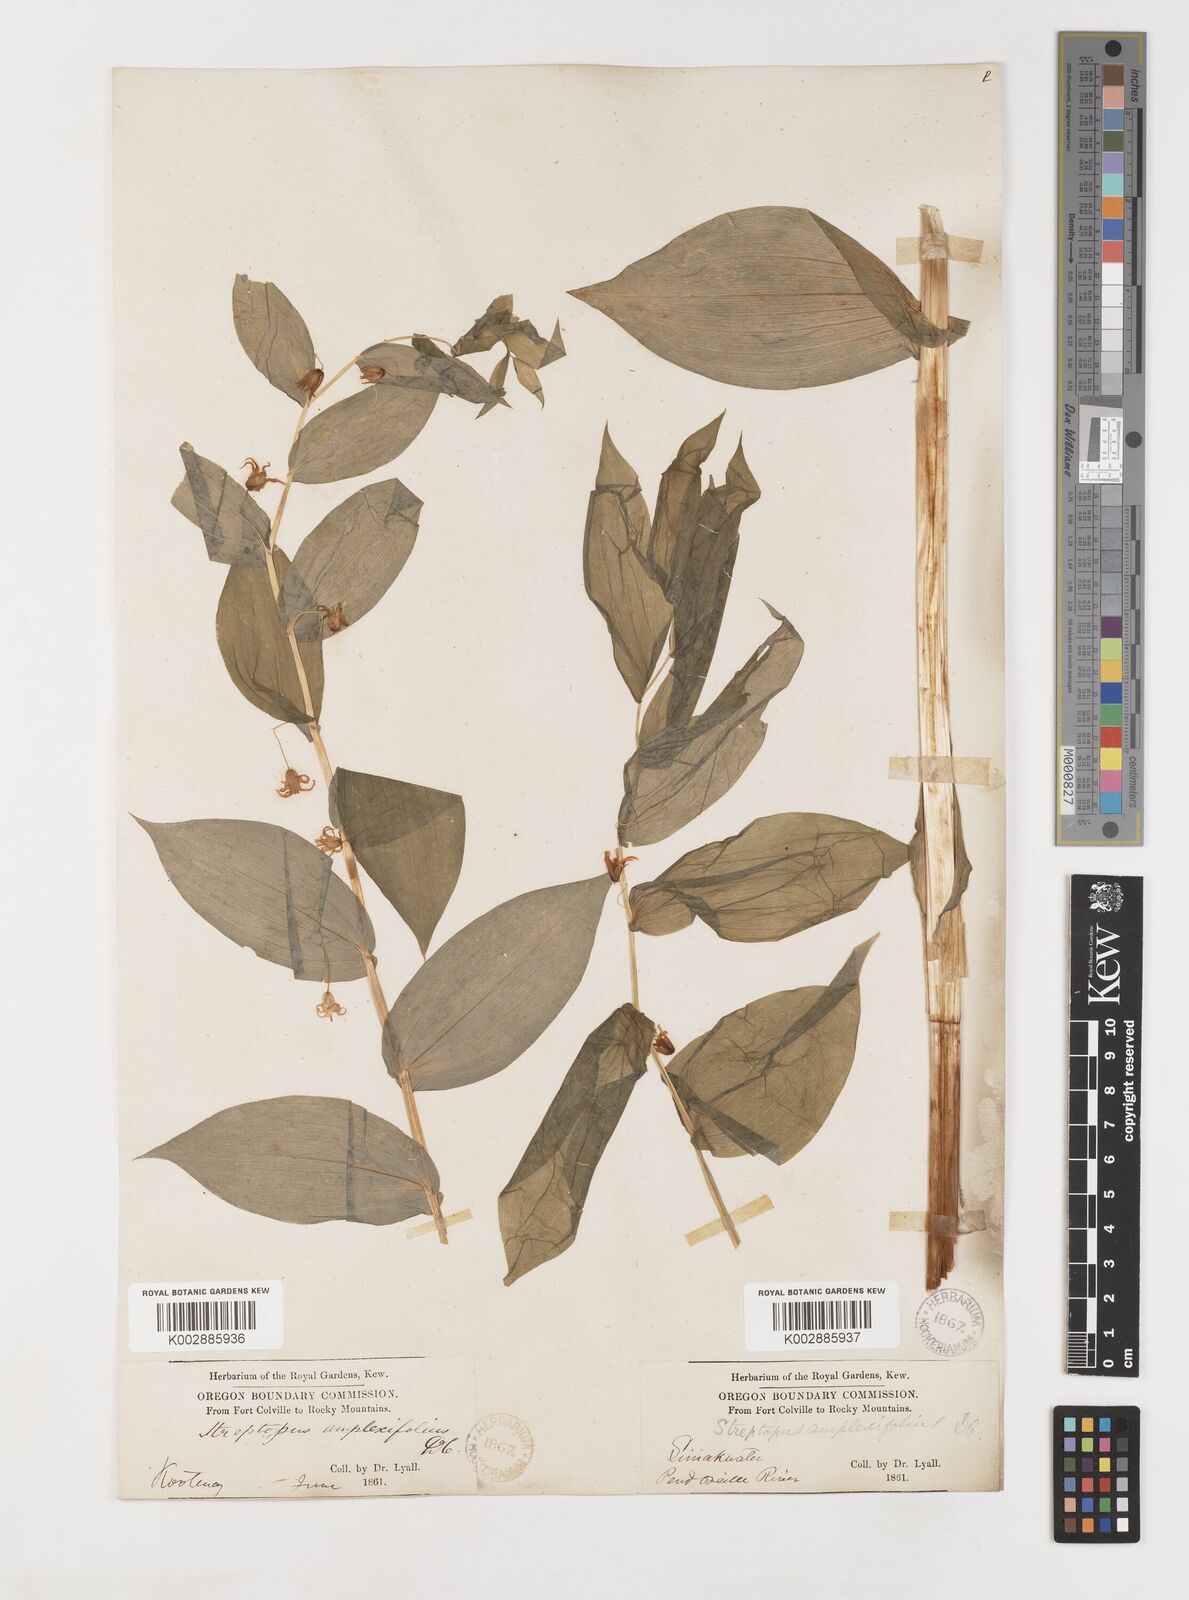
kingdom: Plantae
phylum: Tracheophyta
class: Liliopsida
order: Liliales
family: Liliaceae
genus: Streptopus
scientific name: Streptopus amplexifolius
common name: Clasp twisted stalk
